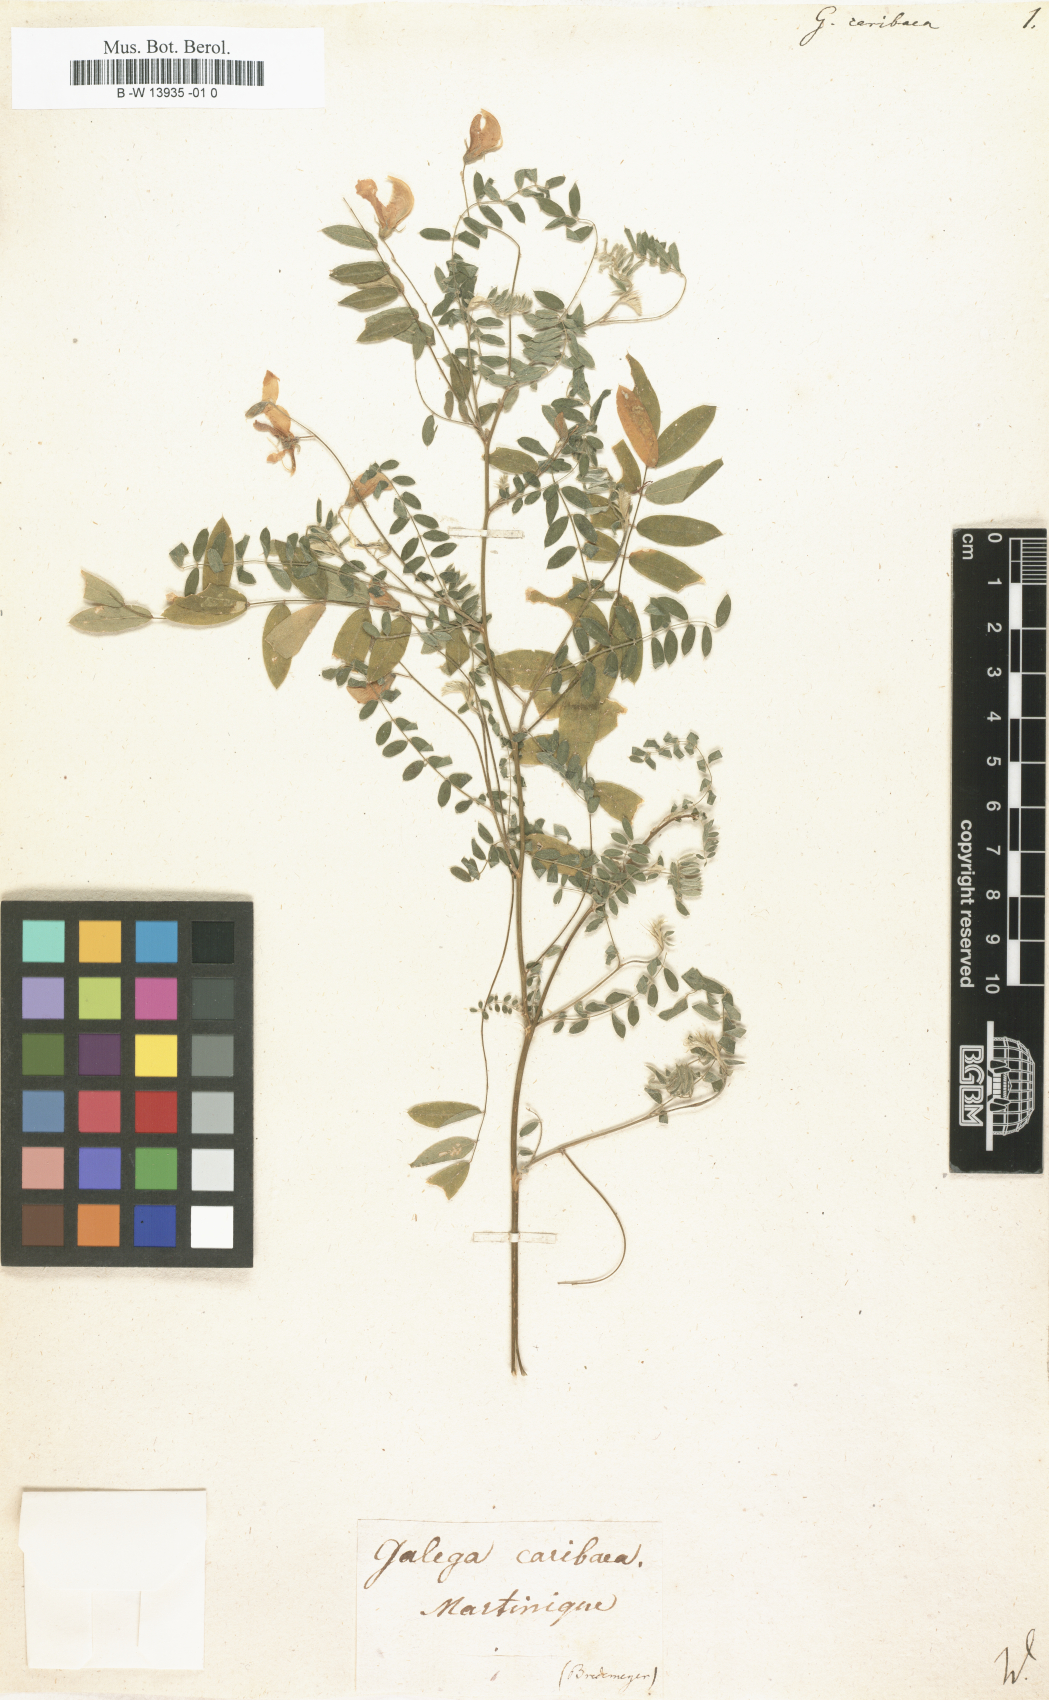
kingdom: Plantae
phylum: Tracheophyta
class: Magnoliopsida
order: Fabales
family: Fabaceae
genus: Coursetia
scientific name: Coursetia caribaea
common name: Anil falso
